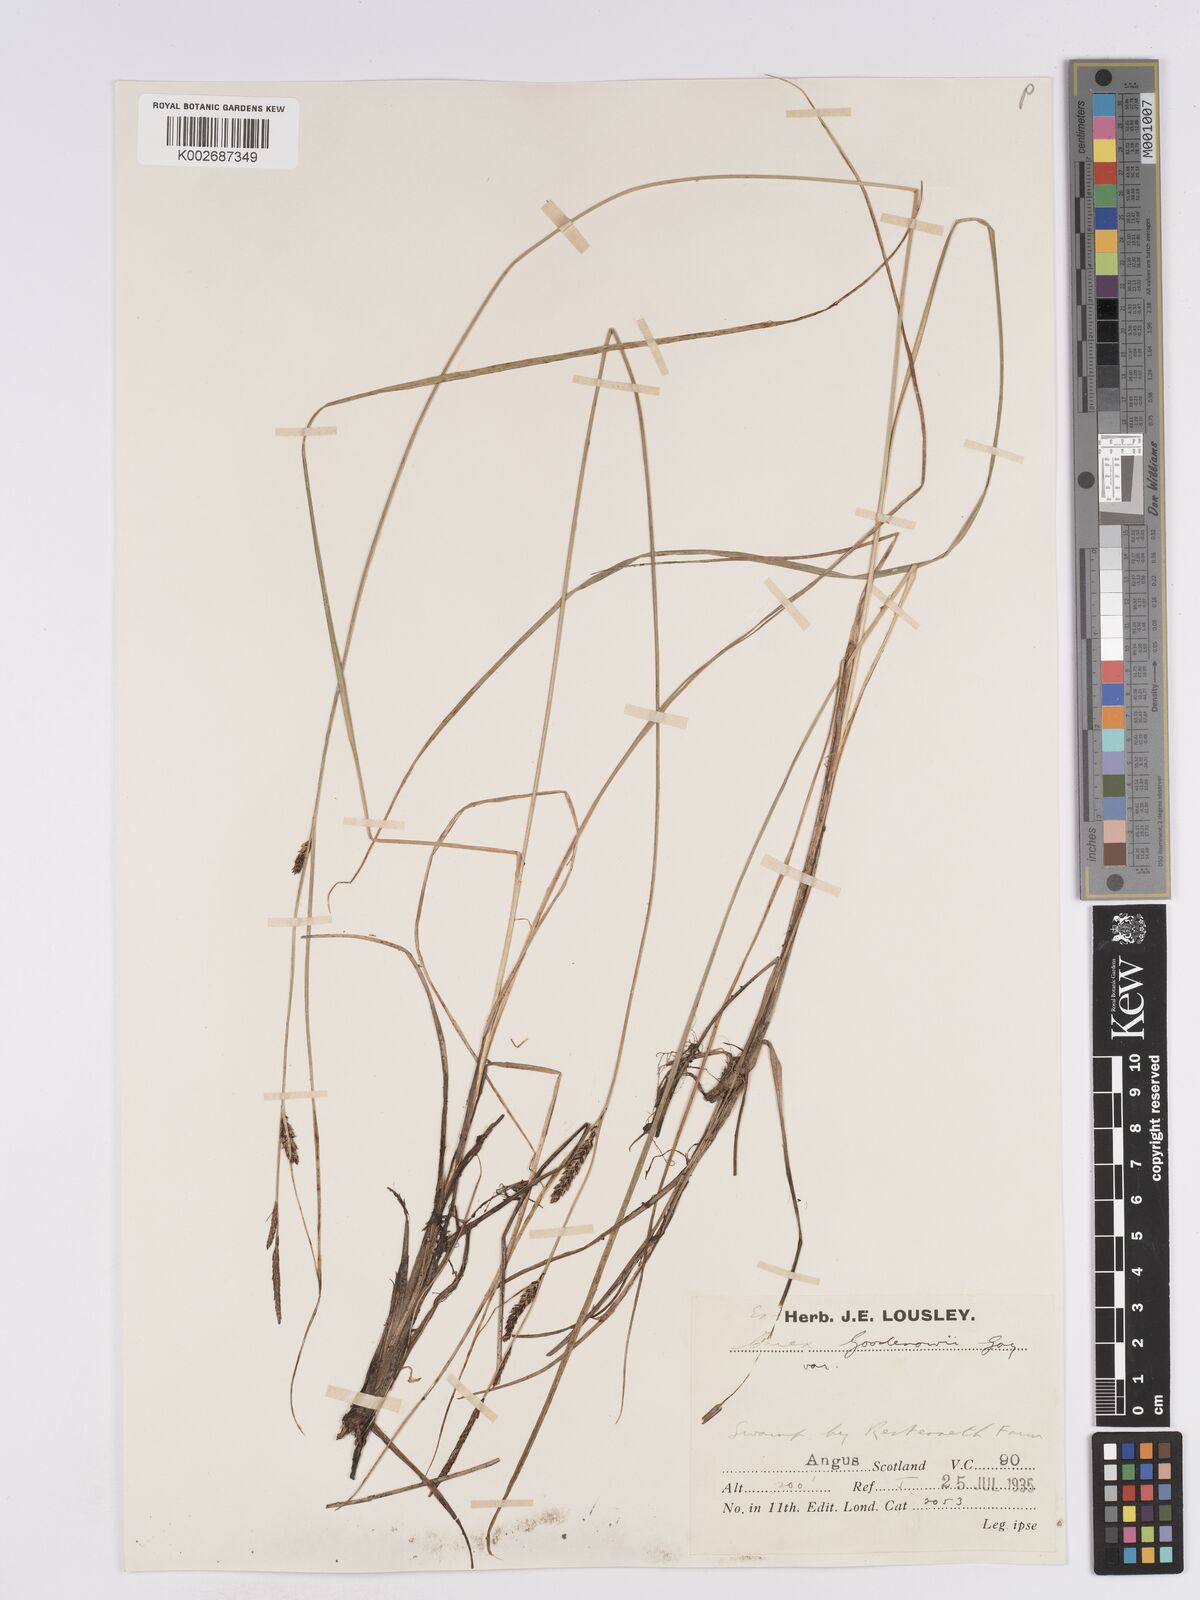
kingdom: Plantae
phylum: Tracheophyta
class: Liliopsida
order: Poales
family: Cyperaceae
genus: Carex
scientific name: Carex nigra
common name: Common sedge
